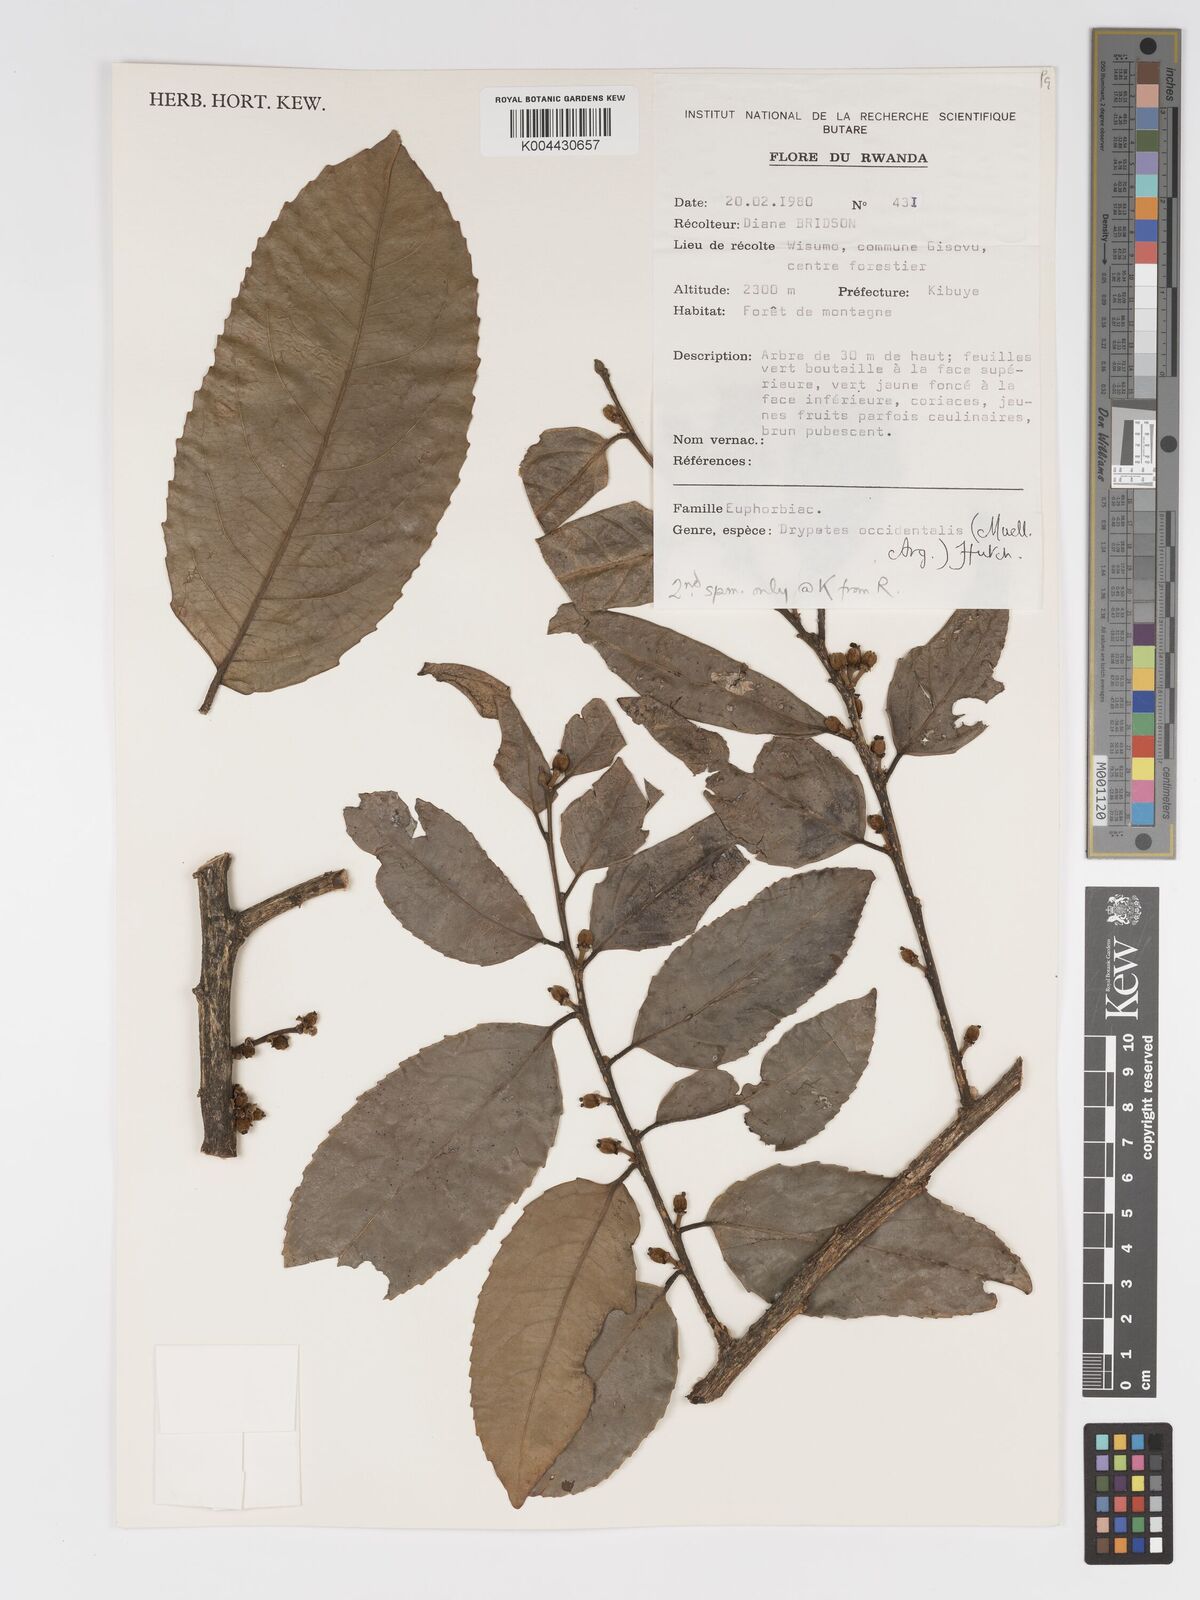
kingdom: Plantae
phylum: Tracheophyta
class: Magnoliopsida
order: Malpighiales
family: Putranjivaceae
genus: Drypetes
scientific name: Drypetes occidentalis
